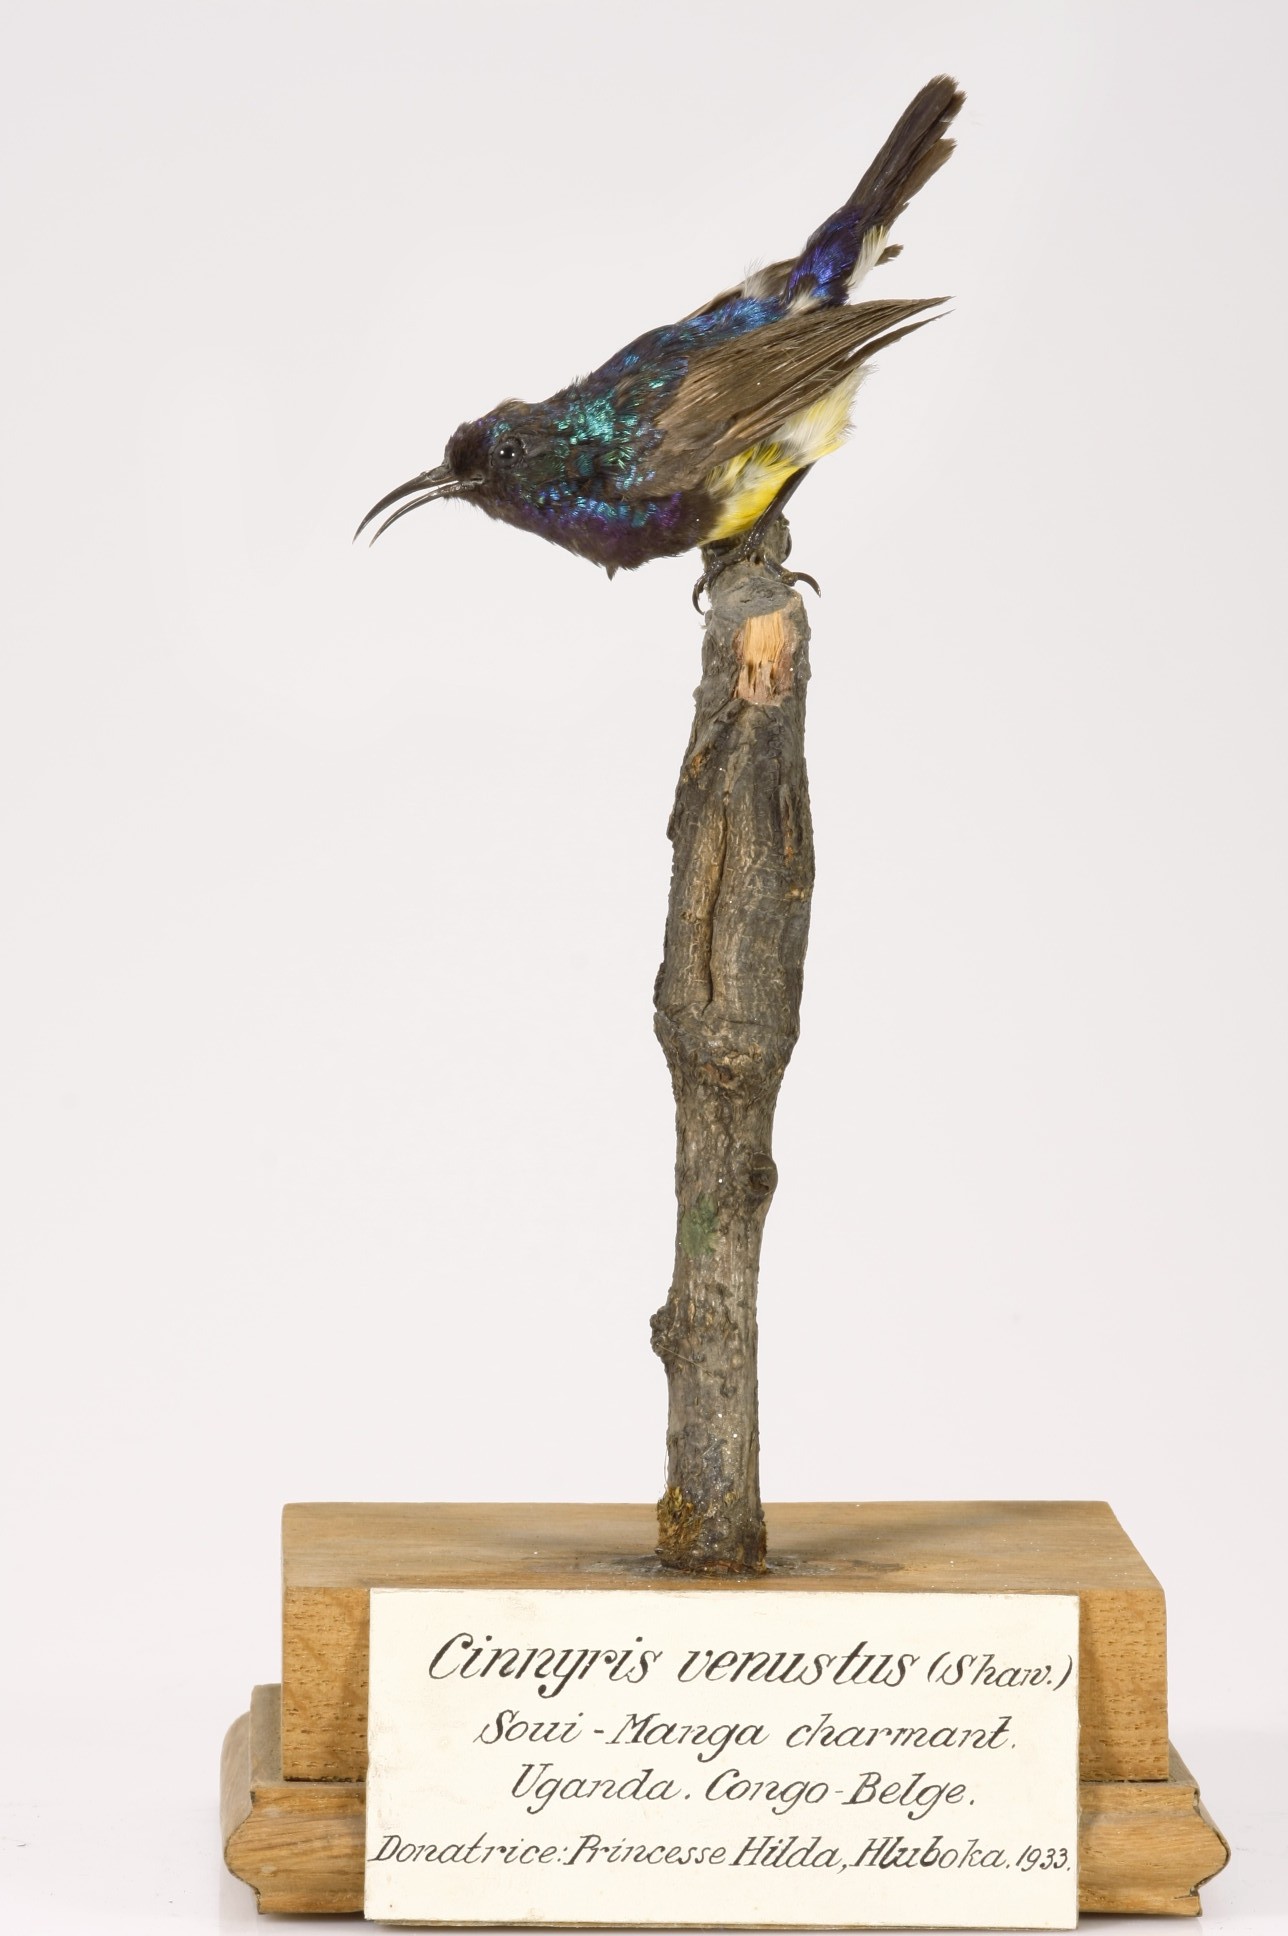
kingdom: Animalia
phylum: Chordata
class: Aves
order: Passeriformes
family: Nectariniidae
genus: Cinnyris
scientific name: Cinnyris venustus
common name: Variable sunbird
